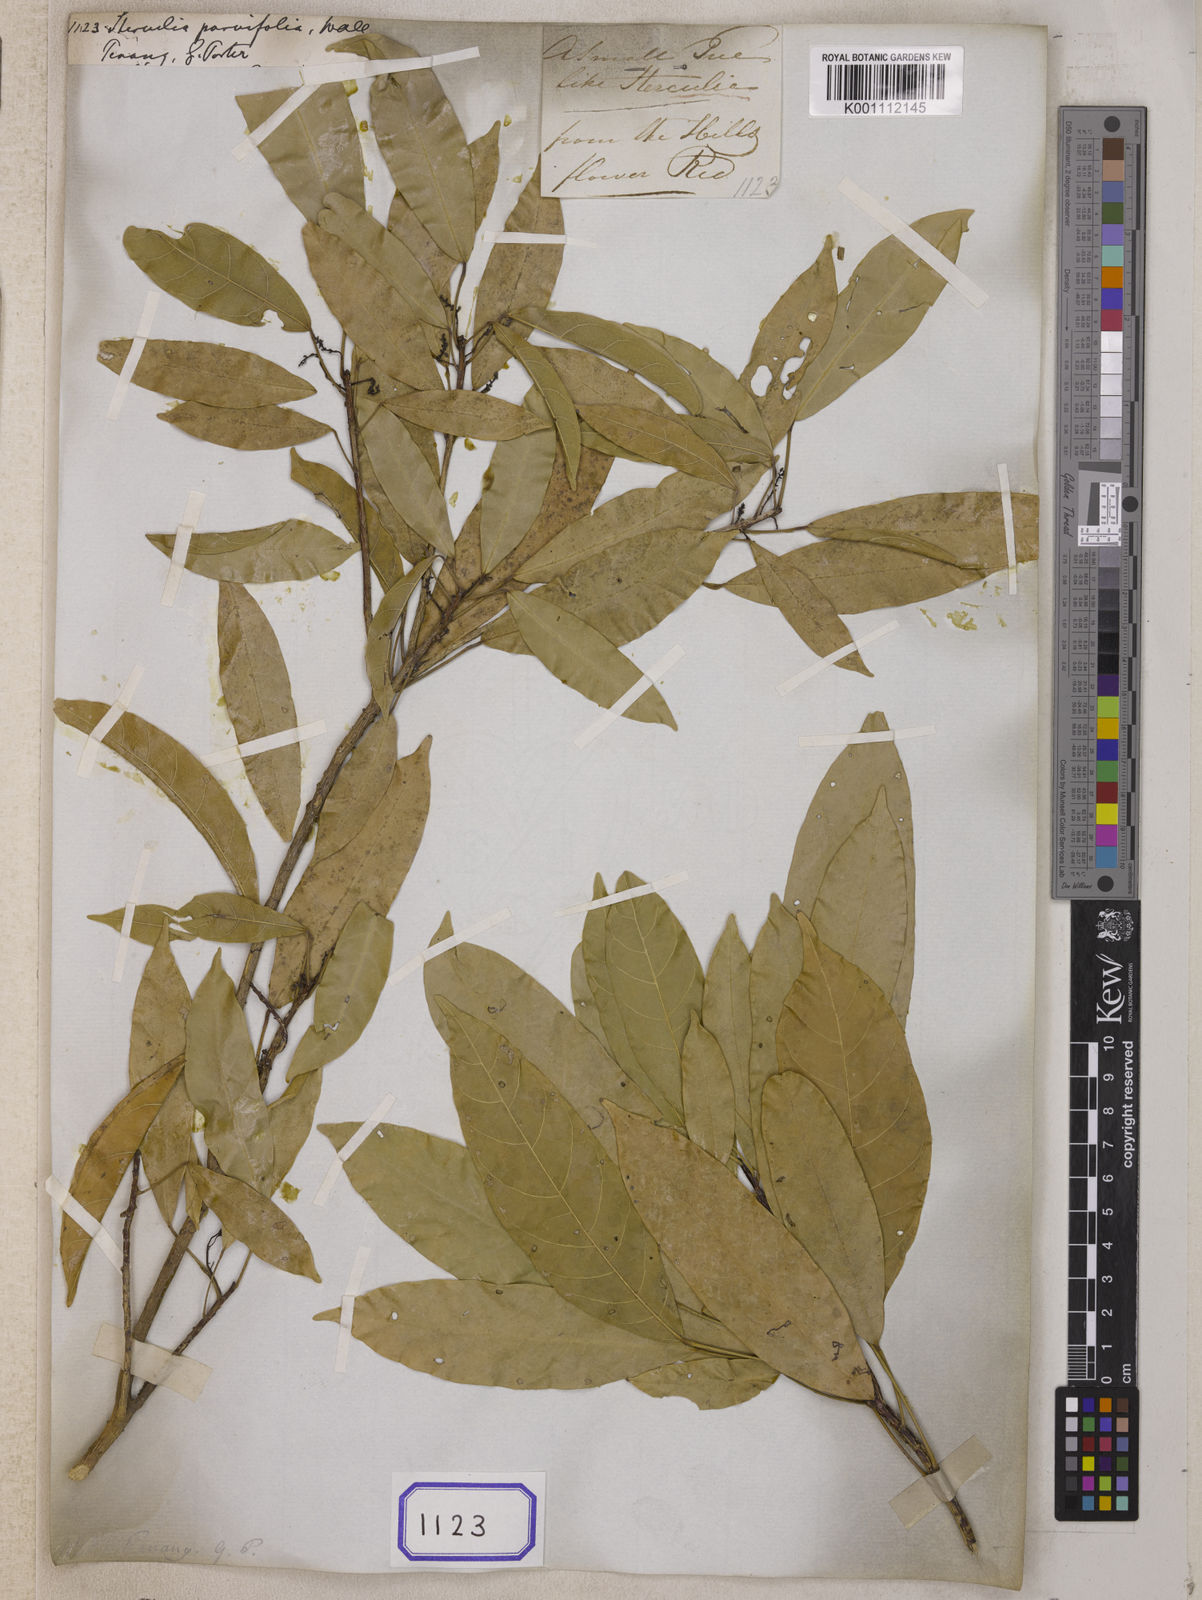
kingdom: Plantae
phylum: Tracheophyta
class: Magnoliopsida
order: Malvales
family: Malvaceae
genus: Sterculia
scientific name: Sterculia
